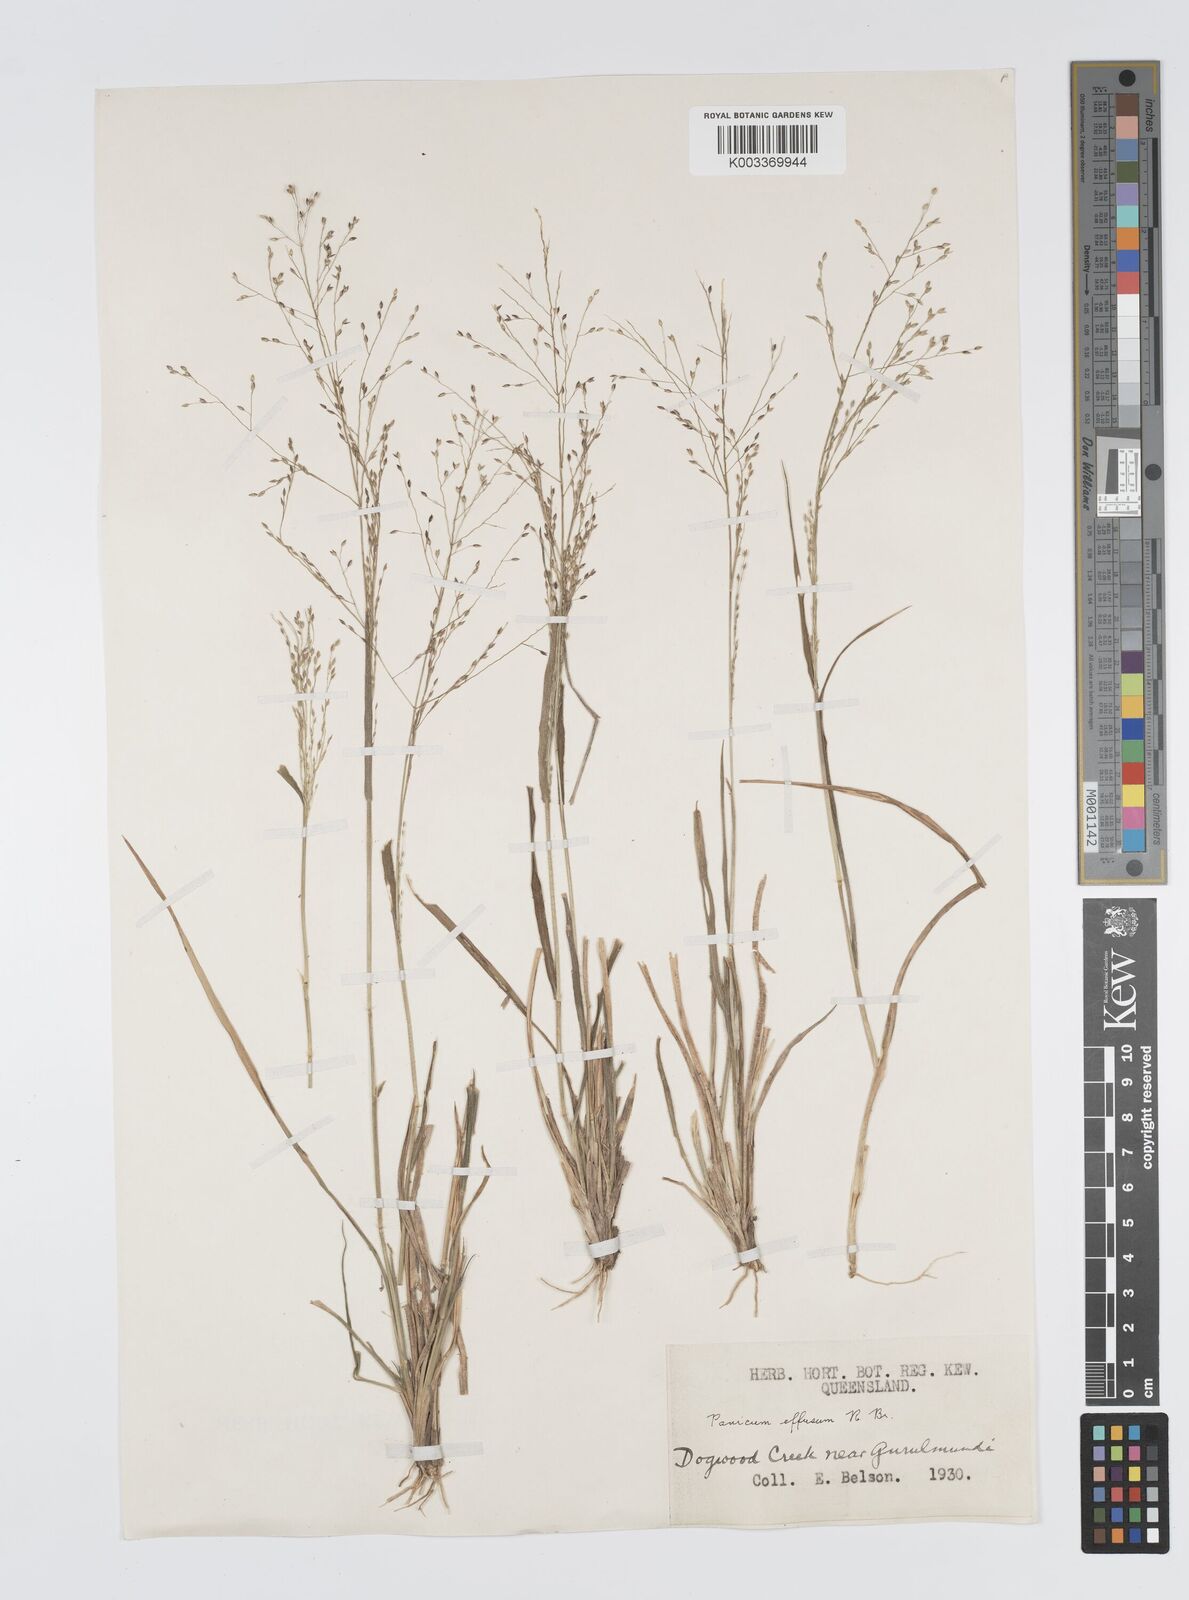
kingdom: Plantae
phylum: Tracheophyta
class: Liliopsida
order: Poales
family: Poaceae
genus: Panicum
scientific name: Panicum effusum
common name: Hairy panic grass
